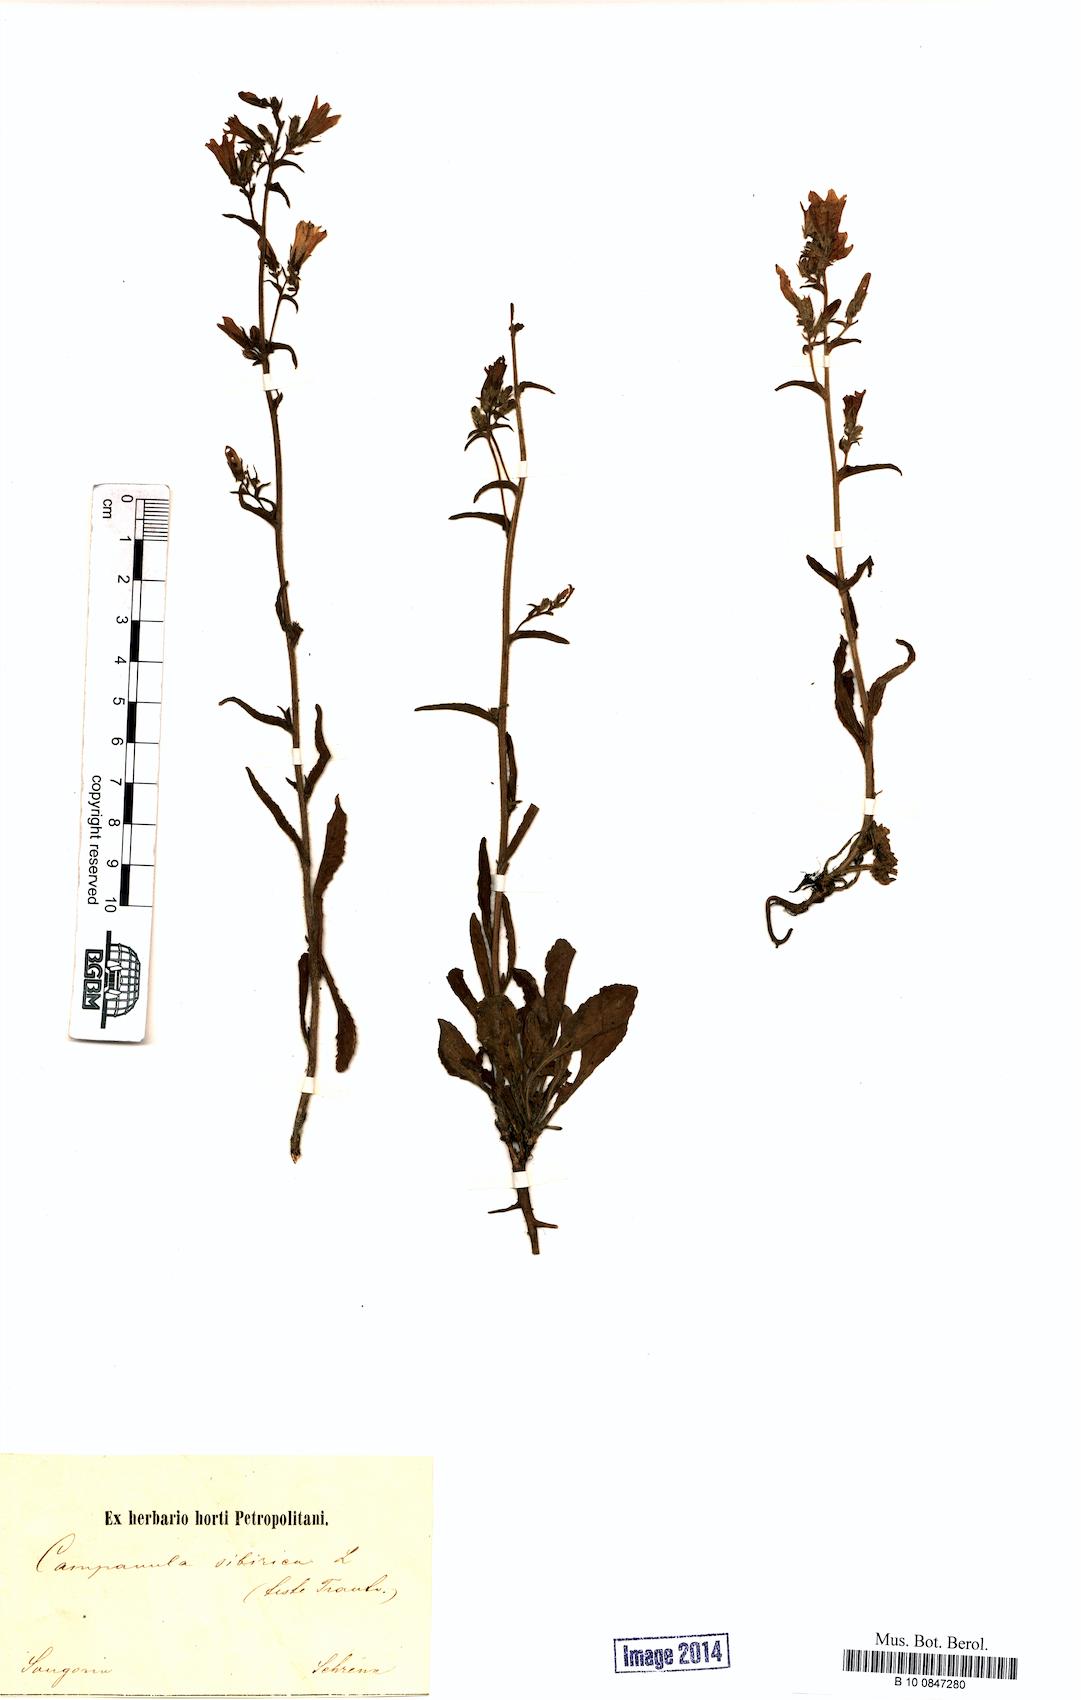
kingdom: Plantae
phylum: Tracheophyta
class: Magnoliopsida
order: Asterales
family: Campanulaceae
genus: Campanula
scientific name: Campanula sibirica
